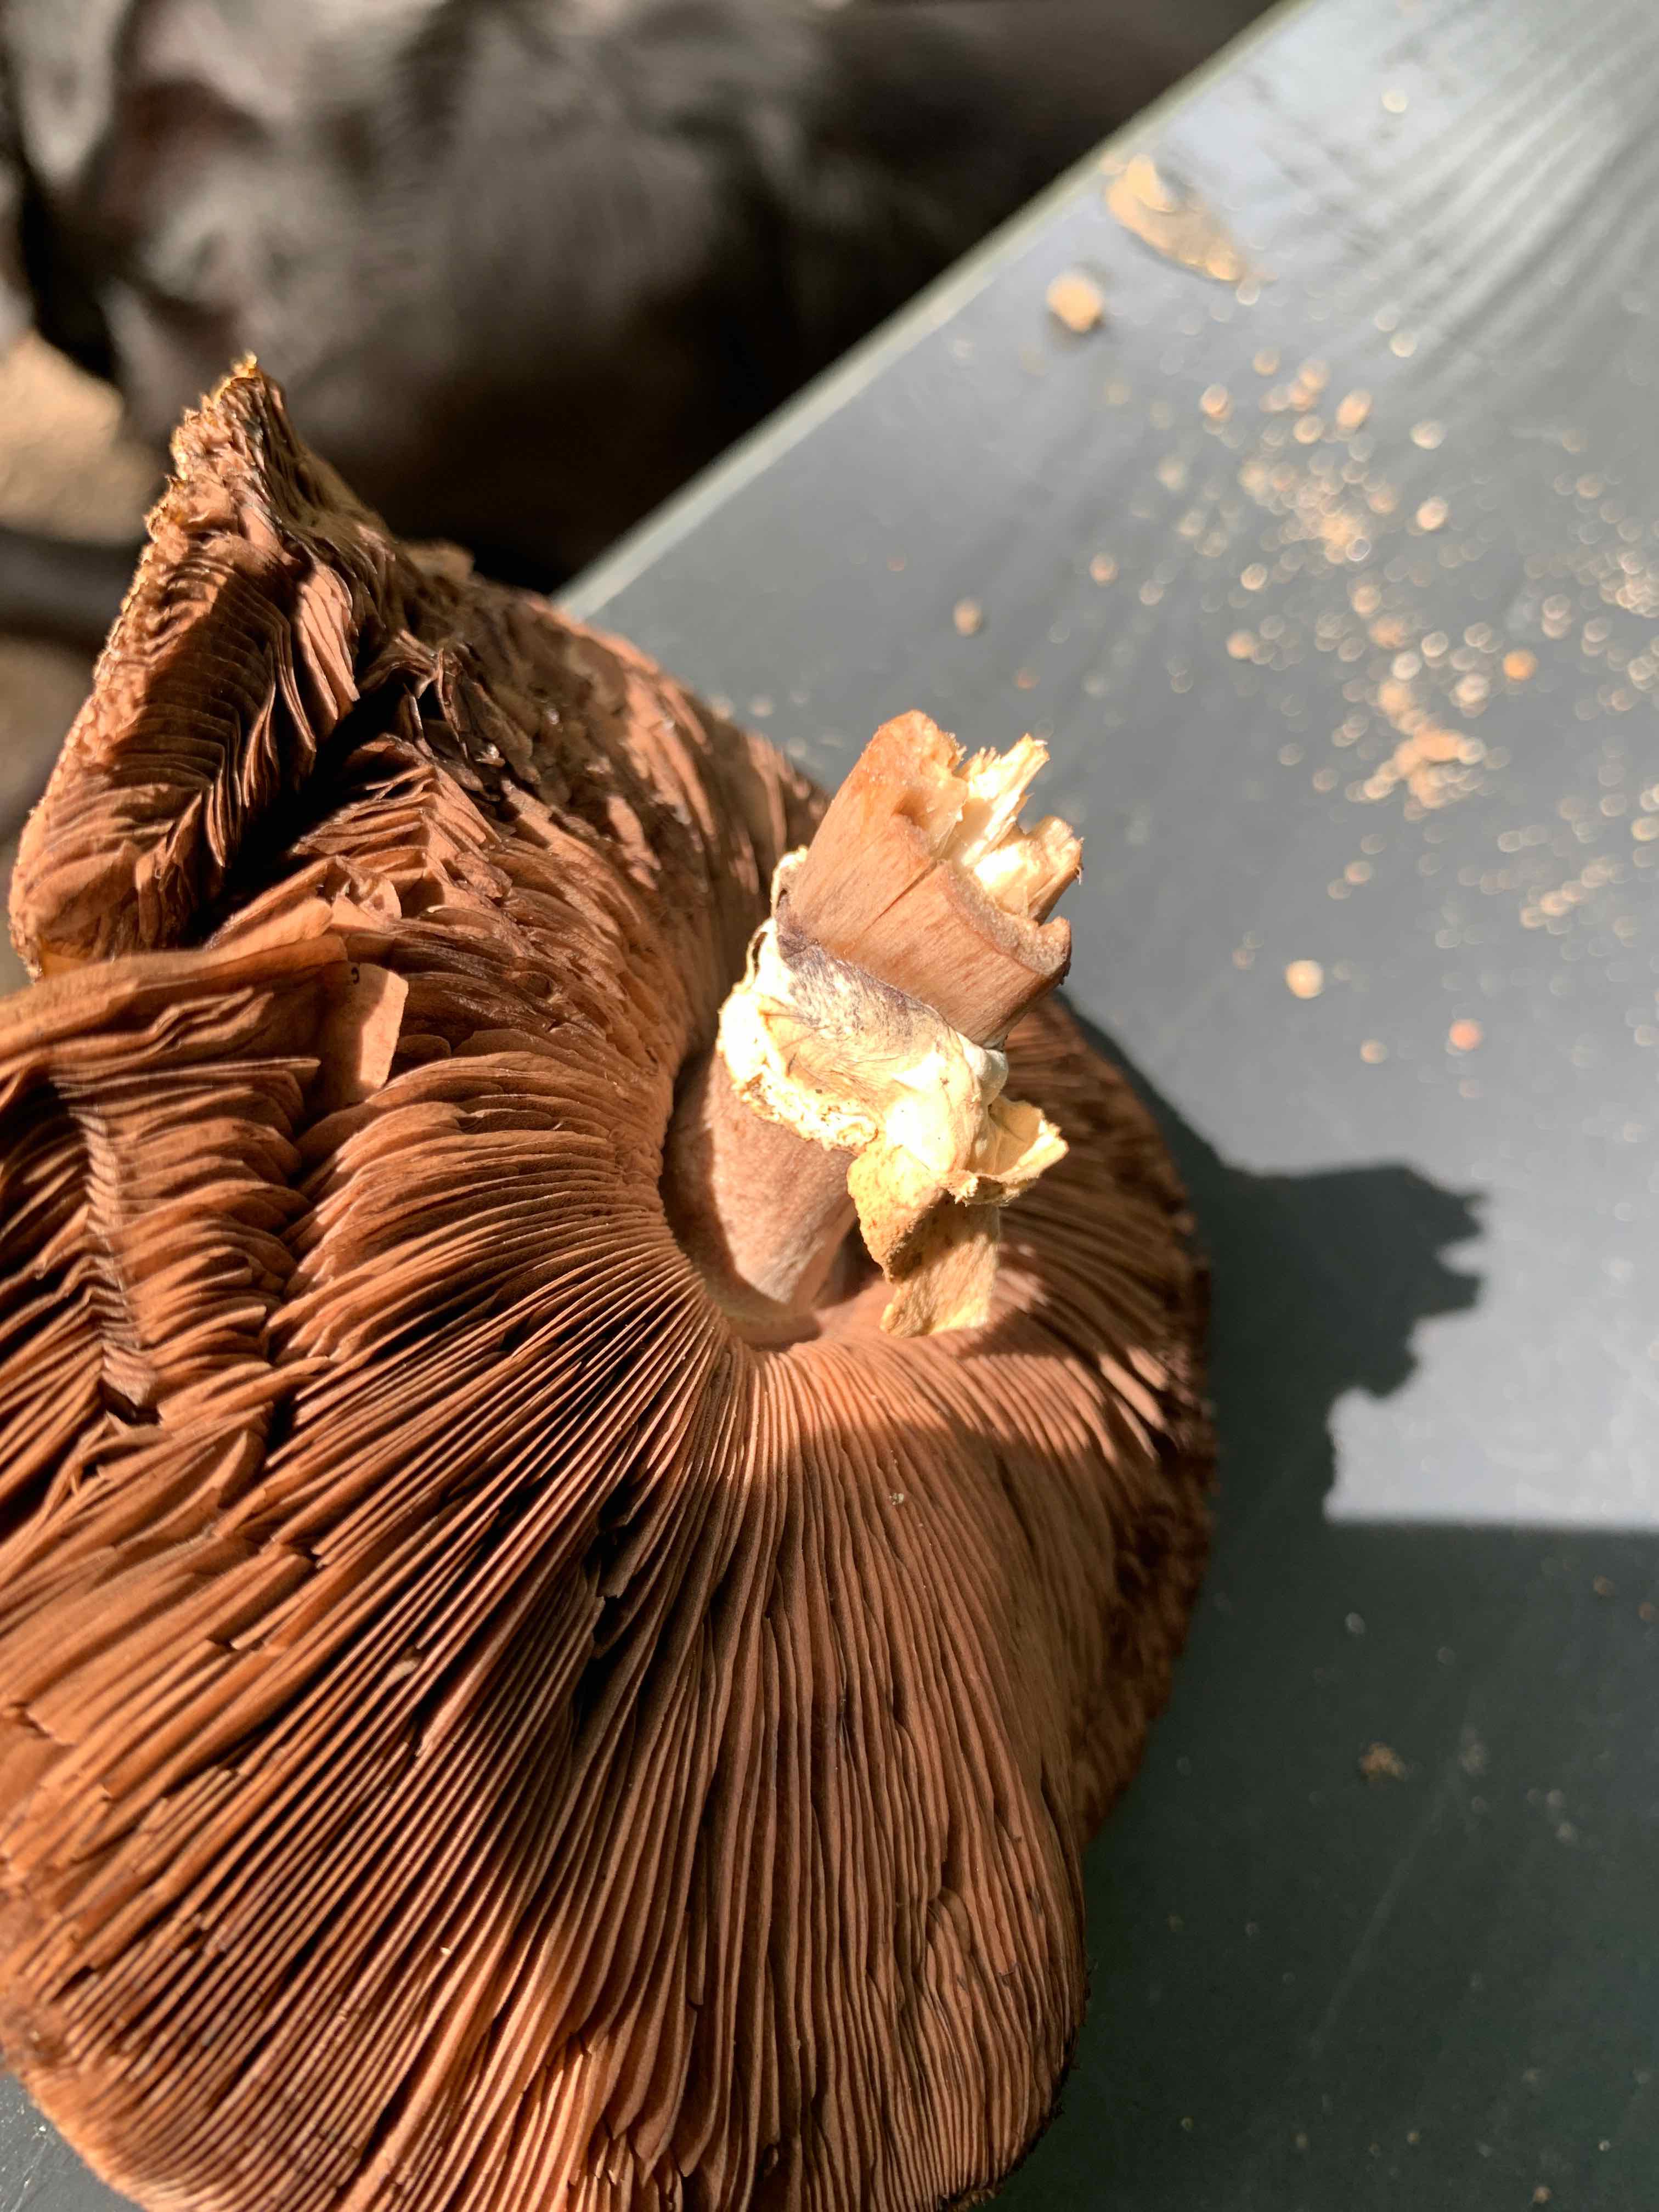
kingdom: Fungi
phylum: Basidiomycota
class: Agaricomycetes
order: Agaricales
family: Agaricaceae
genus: Agaricus
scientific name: Agaricus
